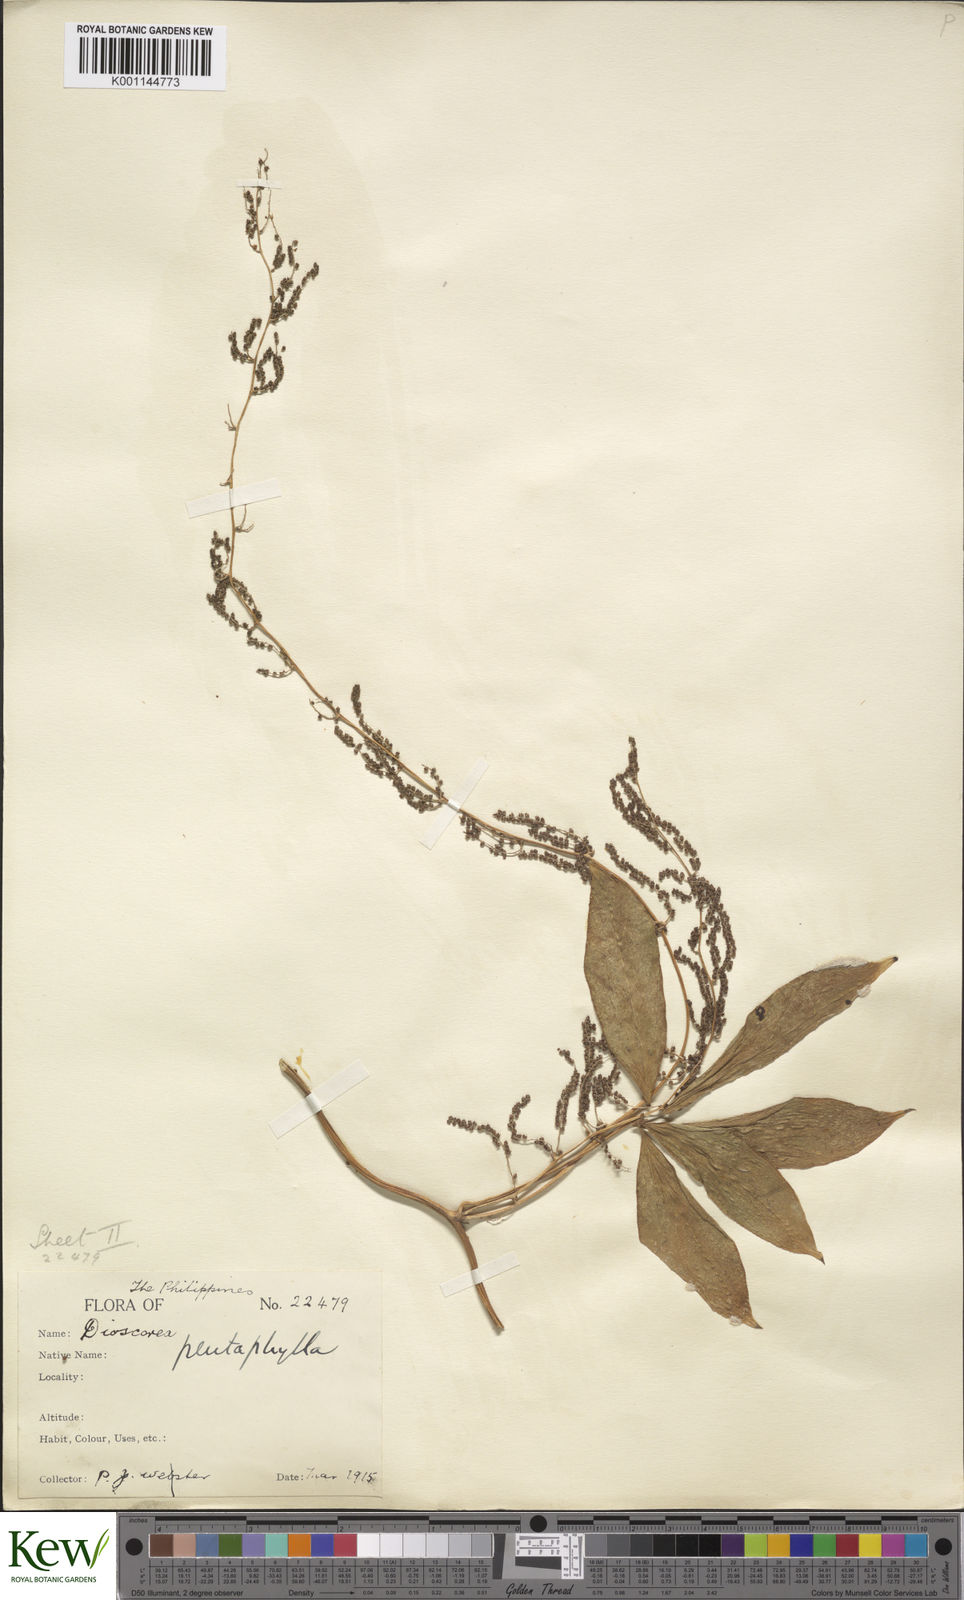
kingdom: Plantae
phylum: Tracheophyta
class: Liliopsida
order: Dioscoreales
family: Dioscoreaceae
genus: Dioscorea
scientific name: Dioscorea pentaphylla
